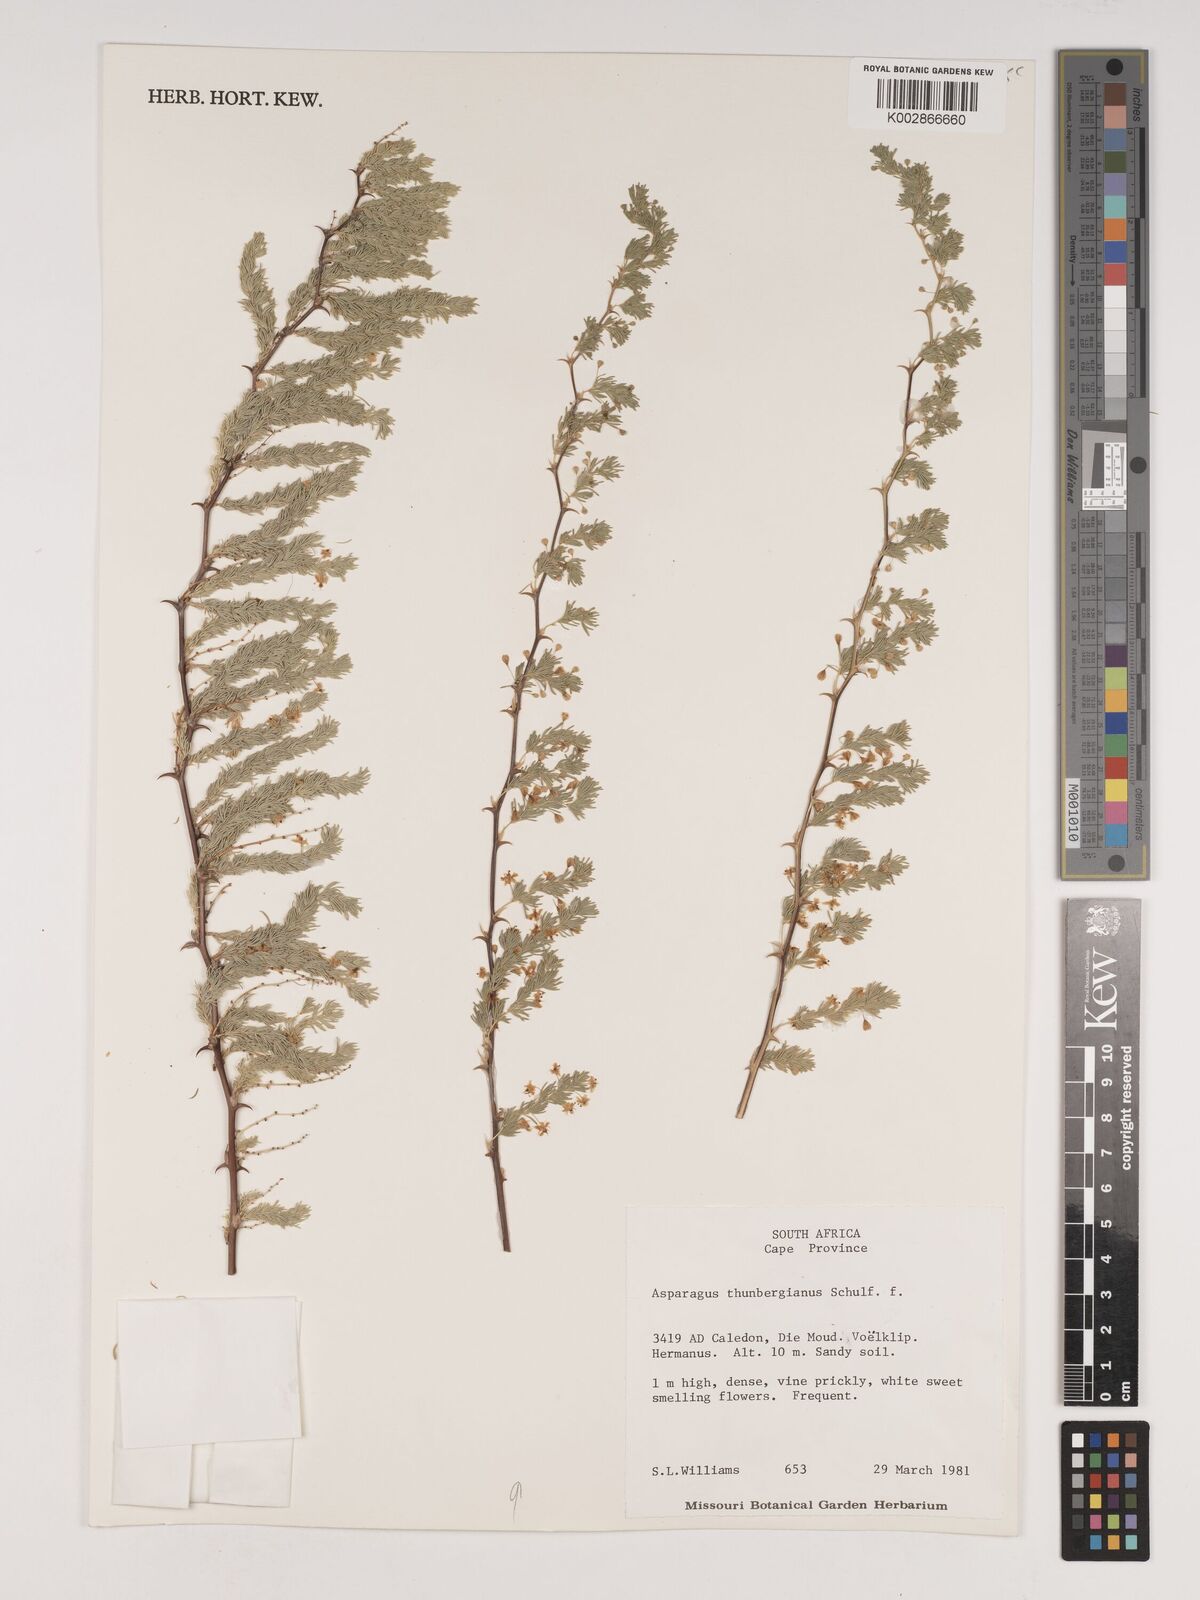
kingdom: Plantae
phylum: Tracheophyta
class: Liliopsida
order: Asparagales
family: Asparagaceae
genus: Asparagus
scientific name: Asparagus rubicundus
